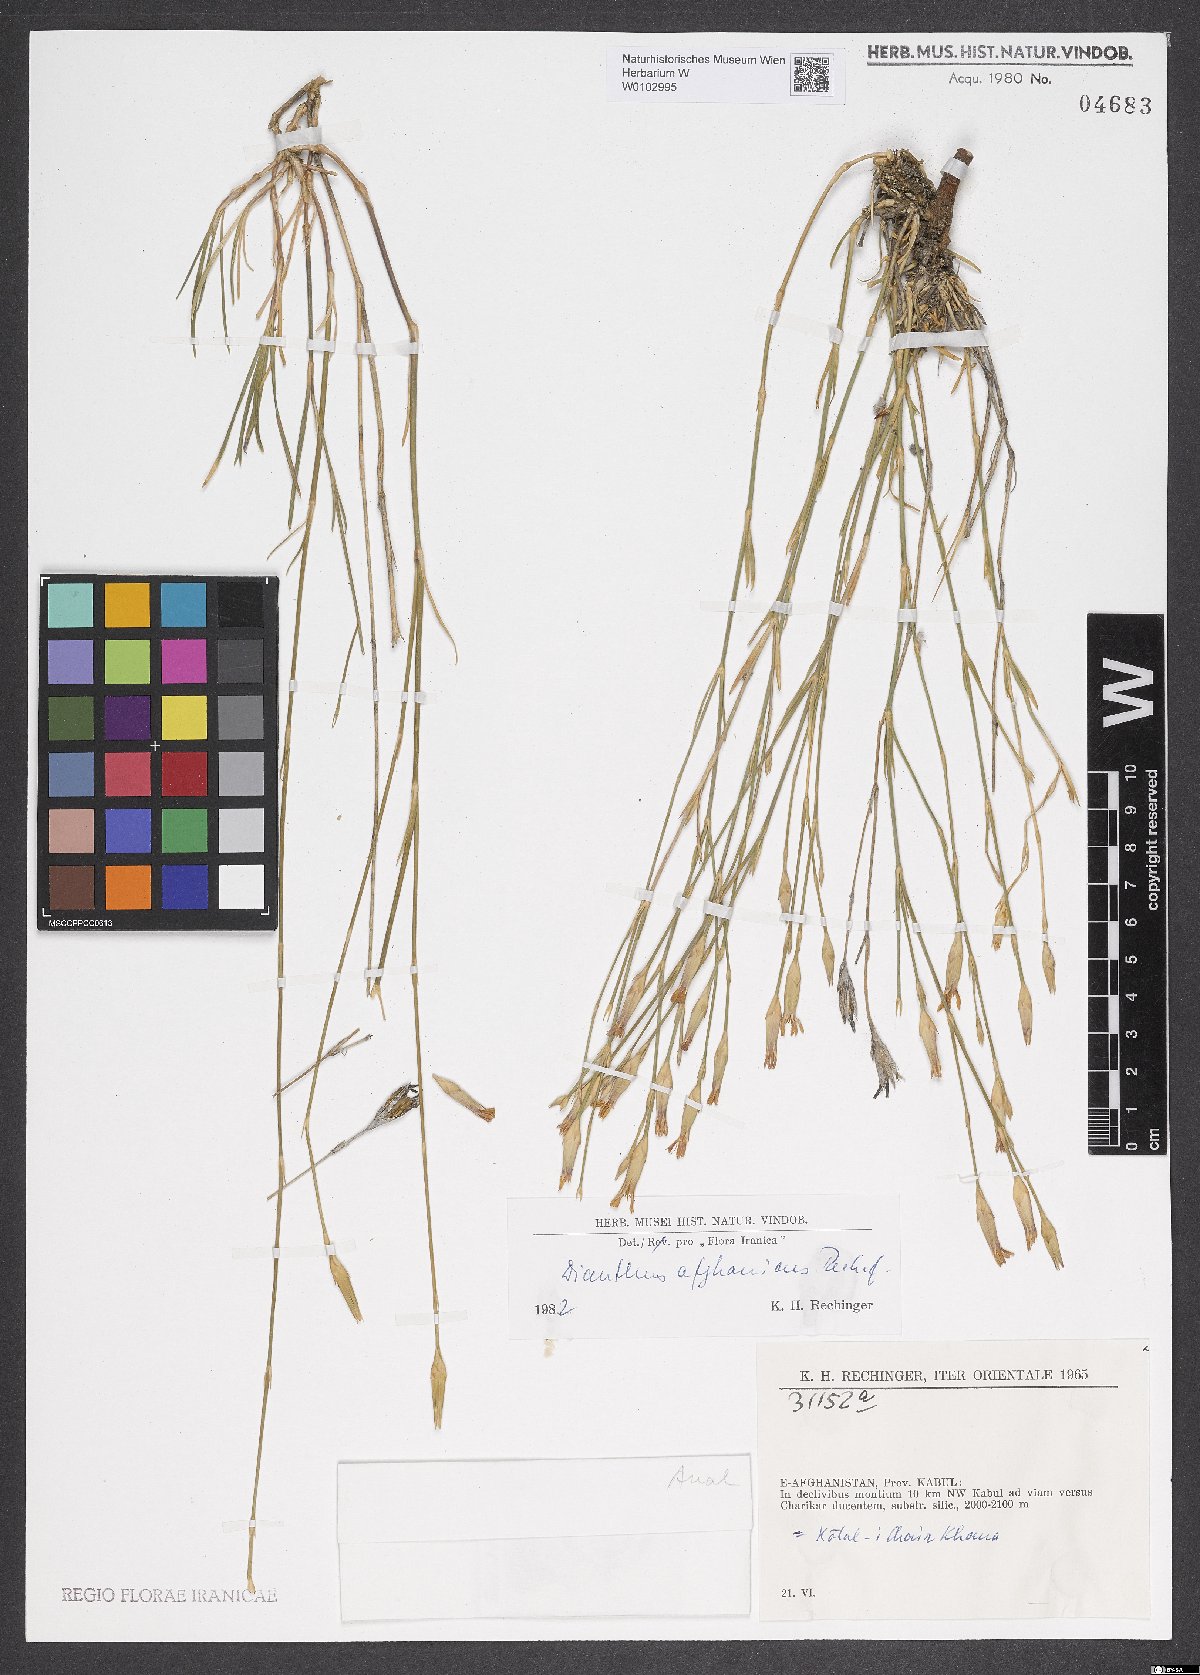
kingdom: Plantae
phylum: Tracheophyta
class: Magnoliopsida
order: Caryophyllales
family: Caryophyllaceae
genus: Dianthus
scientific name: Dianthus afghanicus
